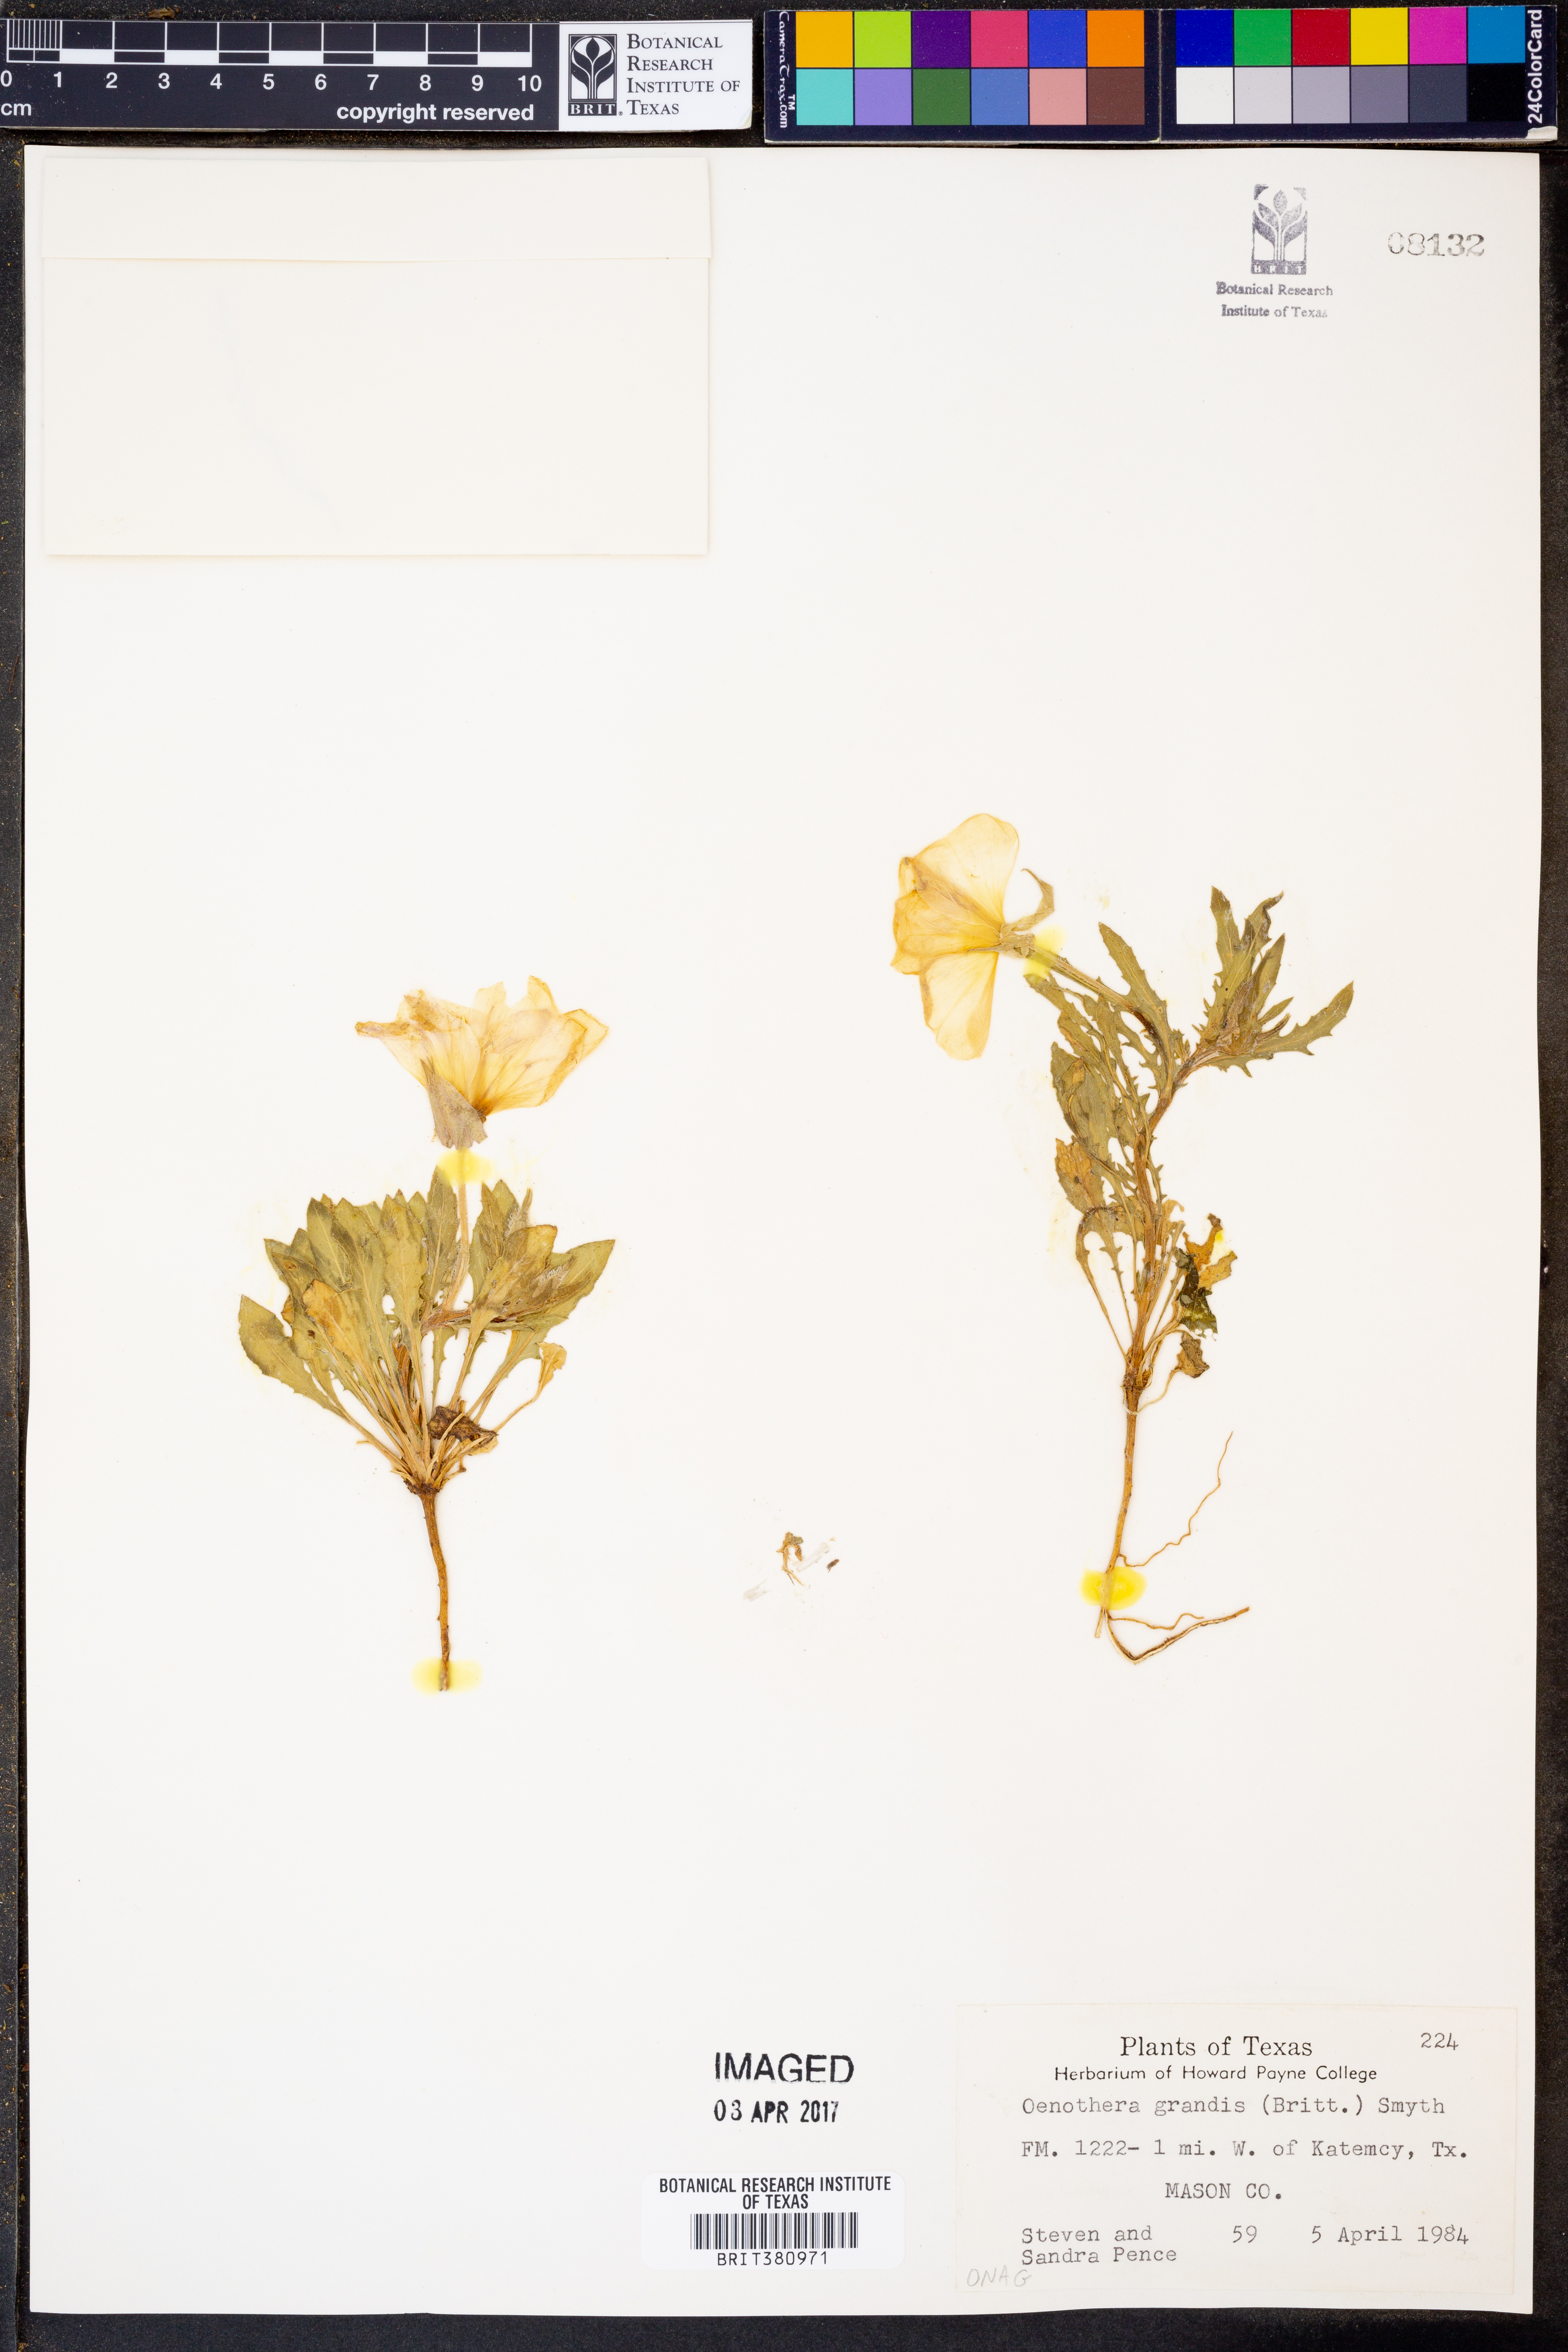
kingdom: Plantae
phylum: Tracheophyta
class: Magnoliopsida
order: Myrtales
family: Onagraceae
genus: Oenothera
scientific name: Oenothera grandis
